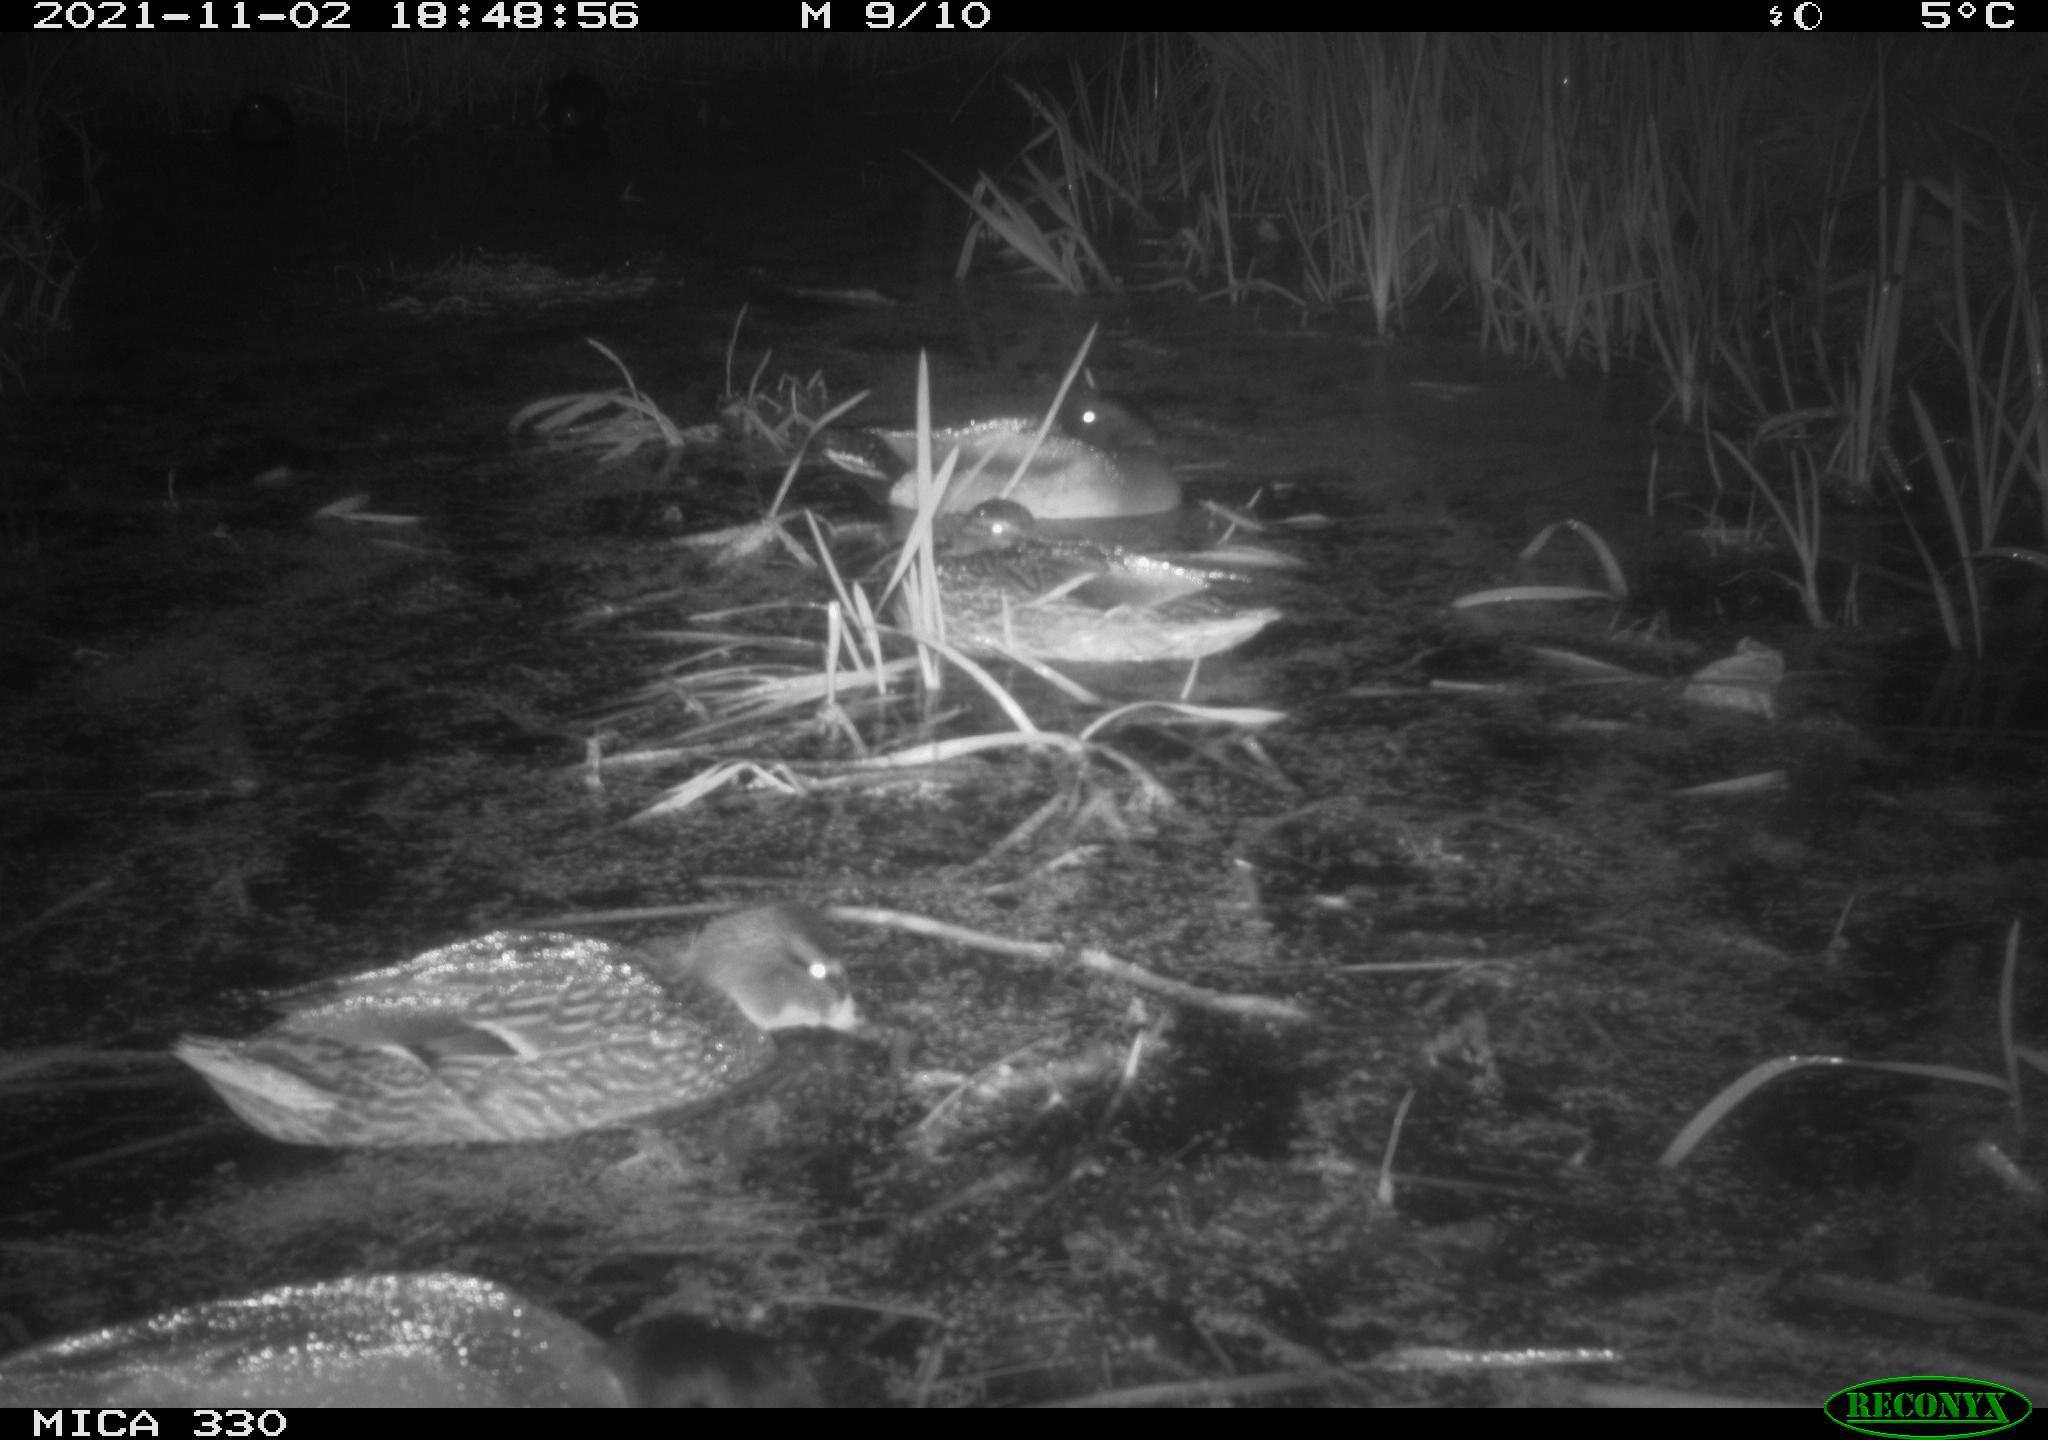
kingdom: Animalia
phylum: Chordata
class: Aves
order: Anseriformes
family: Anatidae
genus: Anas
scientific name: Anas platyrhynchos
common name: Mallard
